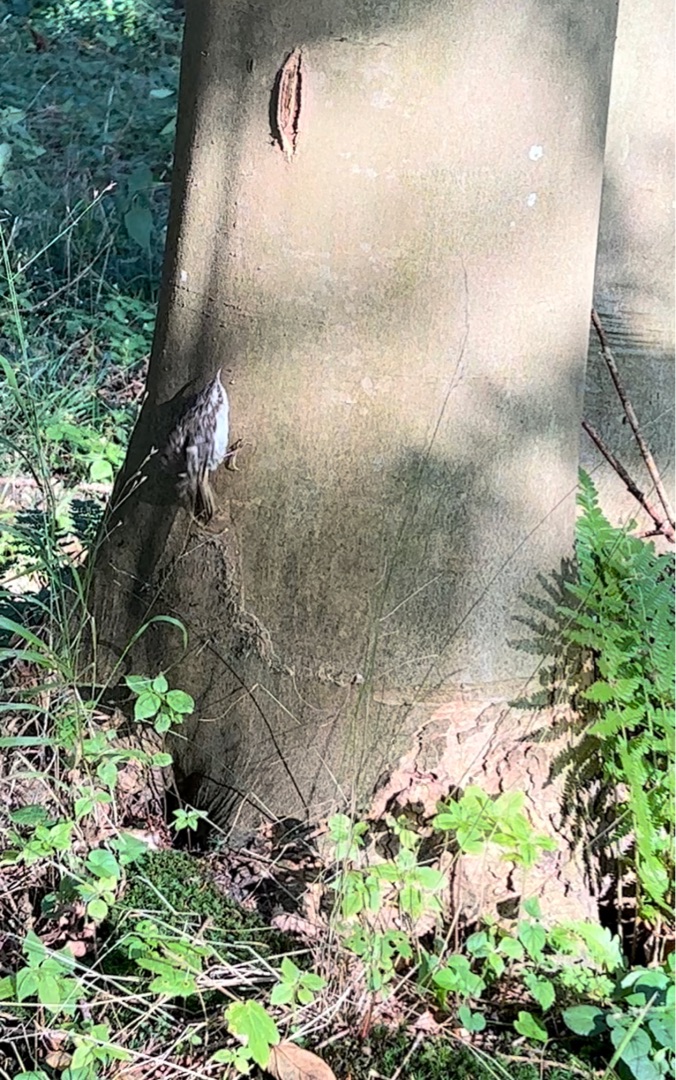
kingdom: Animalia
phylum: Chordata
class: Aves
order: Passeriformes
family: Certhiidae
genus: Certhia
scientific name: Certhia familiaris
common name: Træløber
